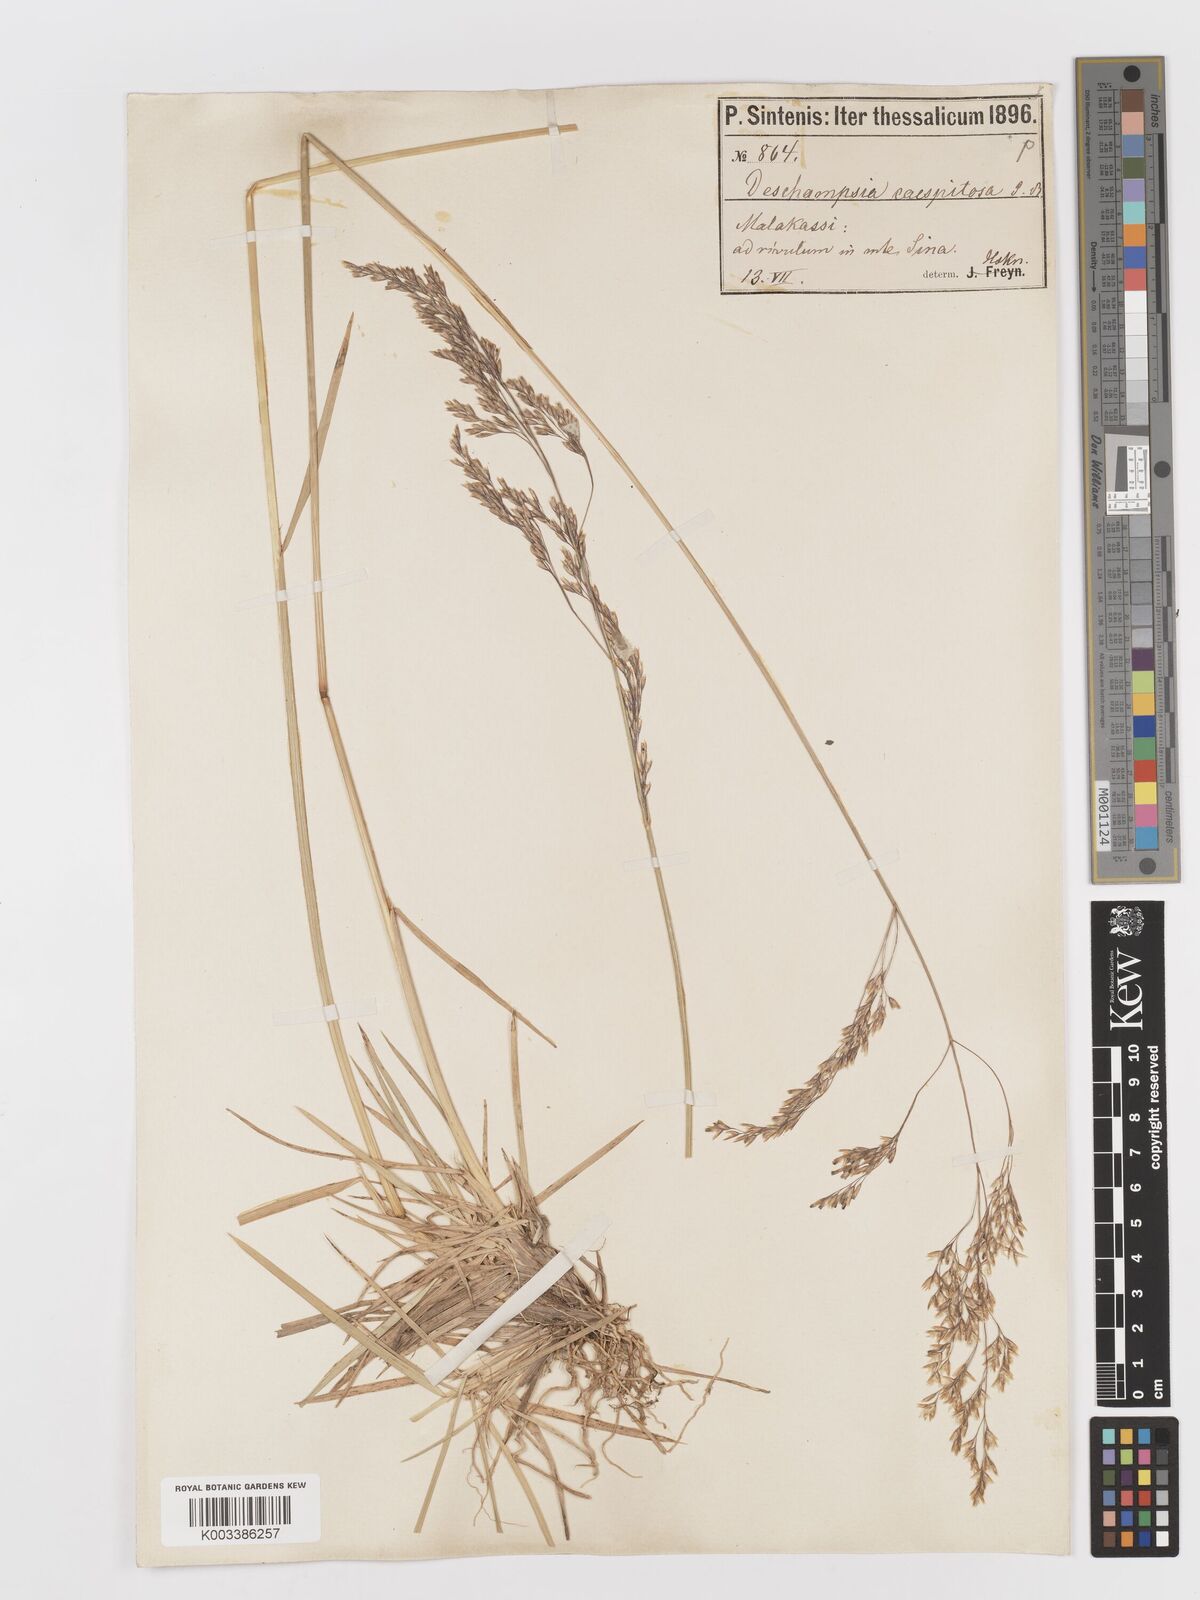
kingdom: Plantae
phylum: Tracheophyta
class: Liliopsida
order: Poales
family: Poaceae
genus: Deschampsia
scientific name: Deschampsia cespitosa
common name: Tufted hair-grass
